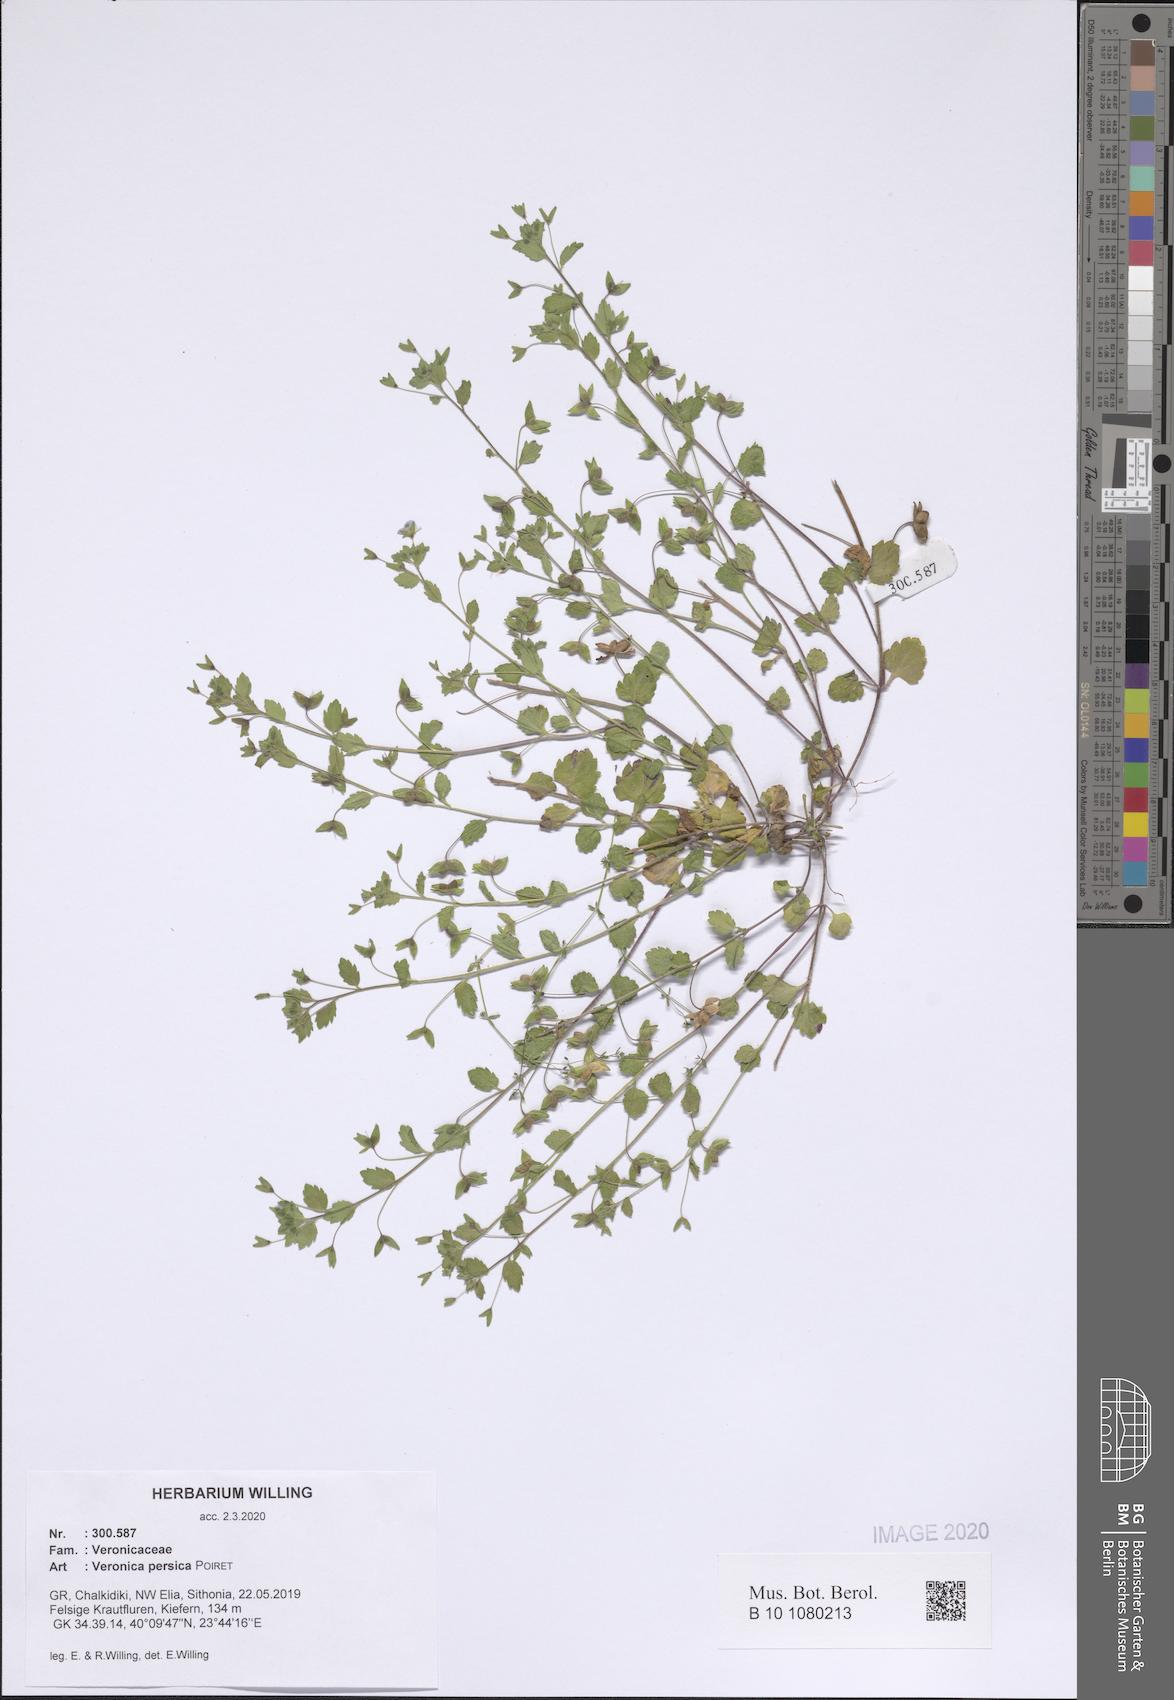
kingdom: Plantae
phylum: Tracheophyta
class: Magnoliopsida
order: Lamiales
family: Plantaginaceae
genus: Veronica
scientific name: Veronica persica
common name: Common field-speedwell
